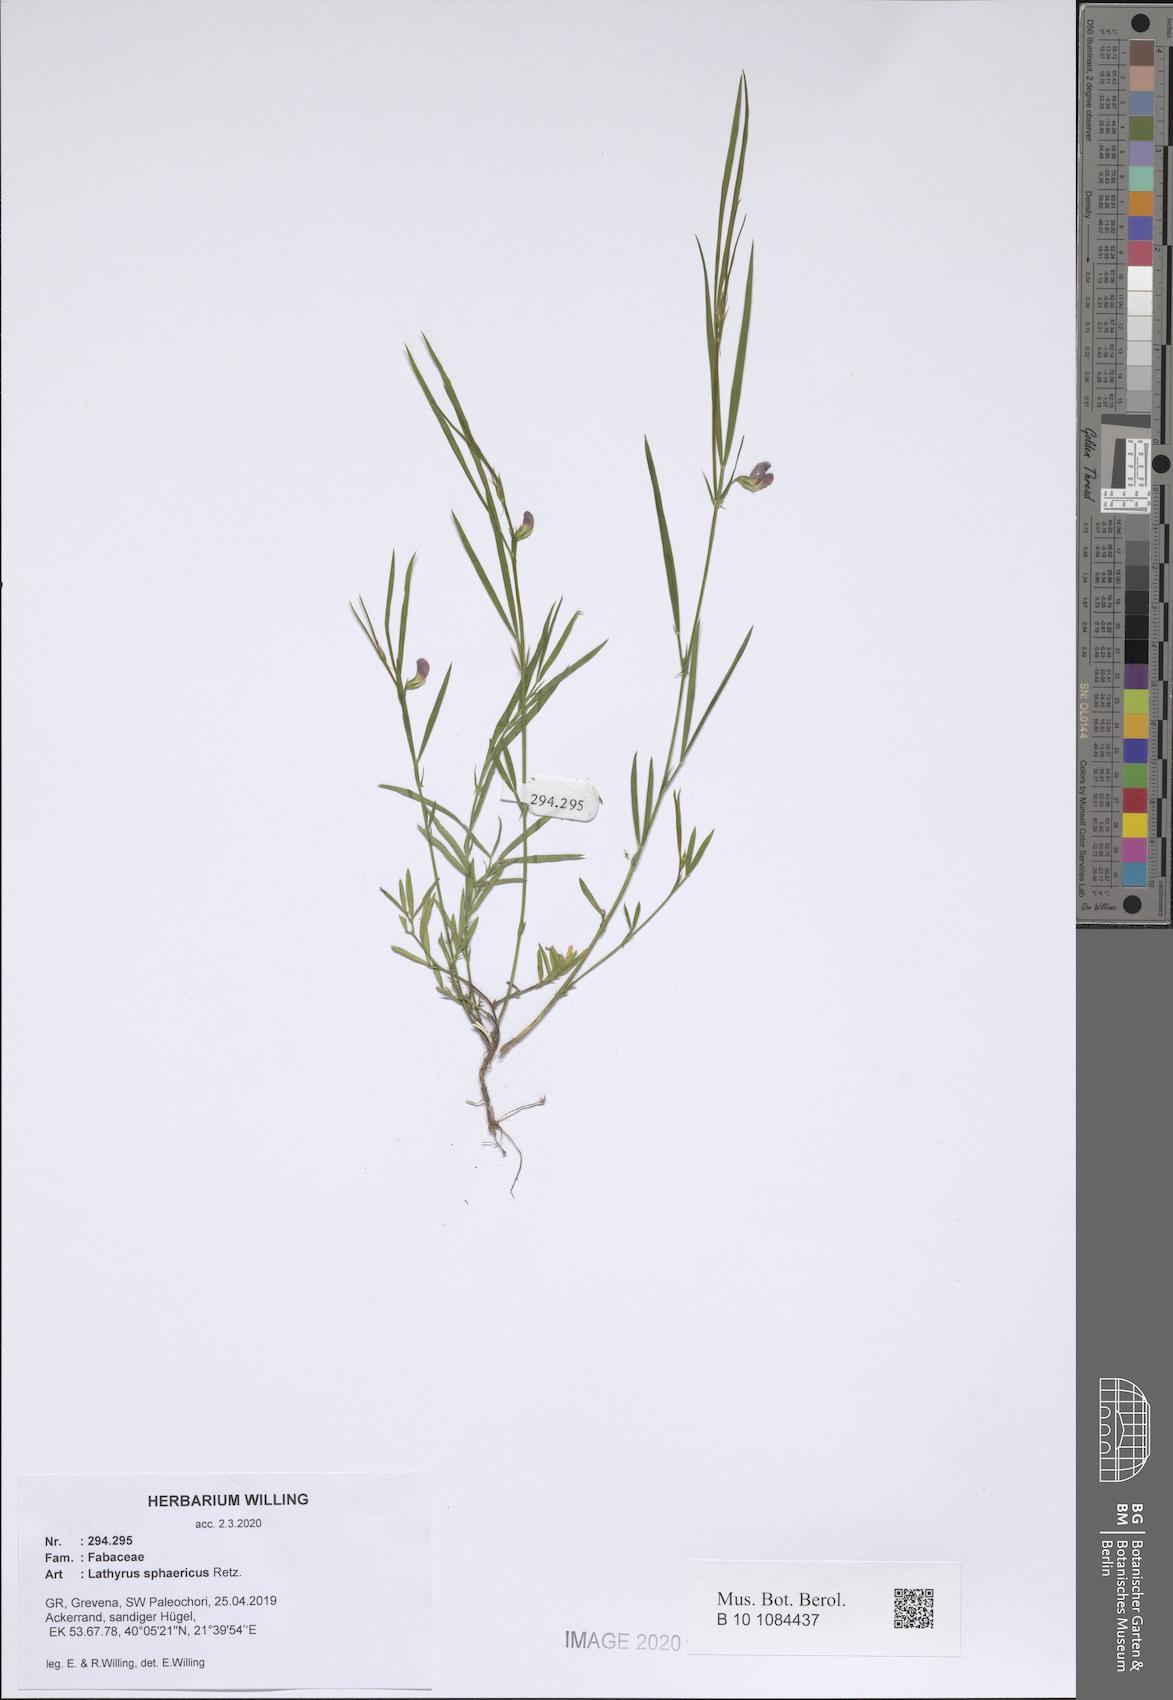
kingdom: Plantae
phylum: Tracheophyta
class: Magnoliopsida
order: Fabales
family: Fabaceae
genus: Lathyrus
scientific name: Lathyrus sphaericus
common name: Grass pea
